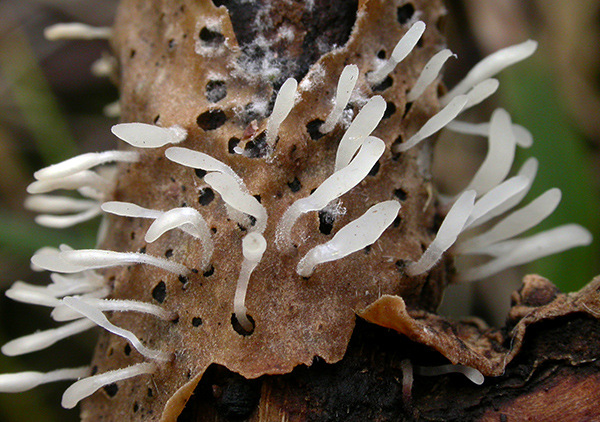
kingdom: Fungi
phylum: Basidiomycota
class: Agaricomycetes
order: Agaricales
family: Typhulaceae
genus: Typhula
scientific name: Typhula spathulata
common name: aske-trådkølle
